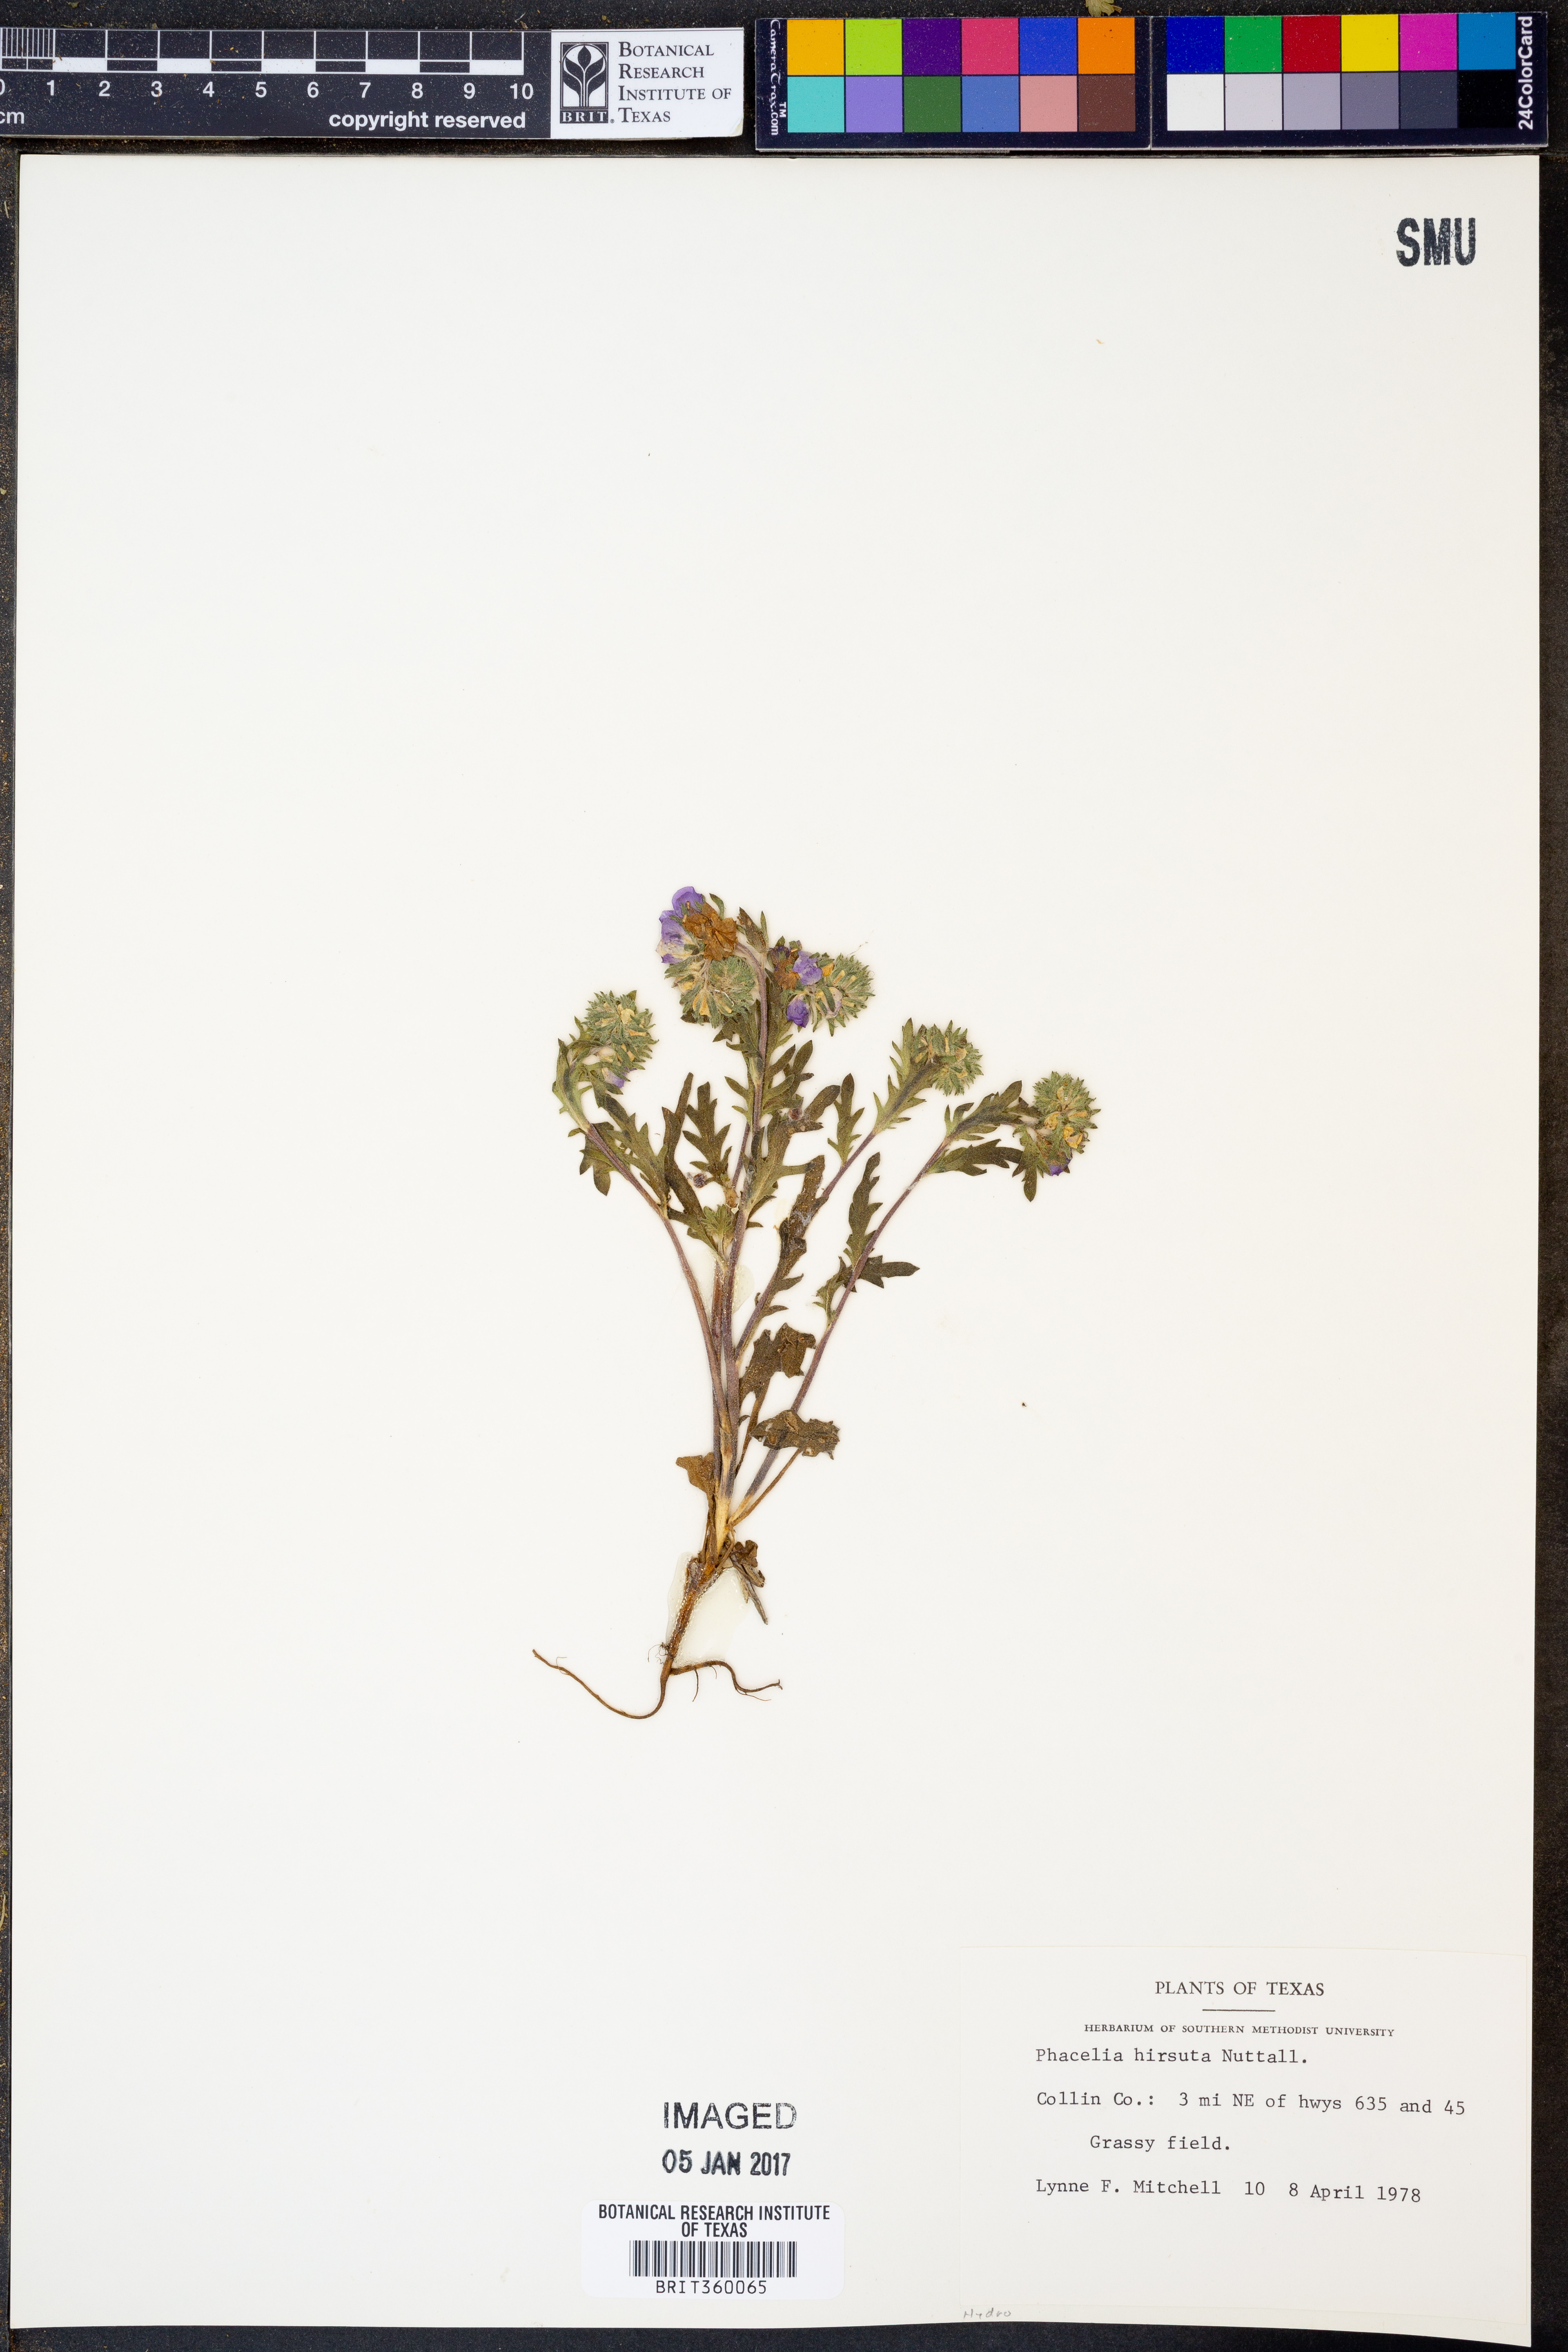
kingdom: Plantae
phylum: Tracheophyta
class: Magnoliopsida
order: Boraginales
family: Hydrophyllaceae
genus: Phacelia
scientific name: Phacelia hirsuta
